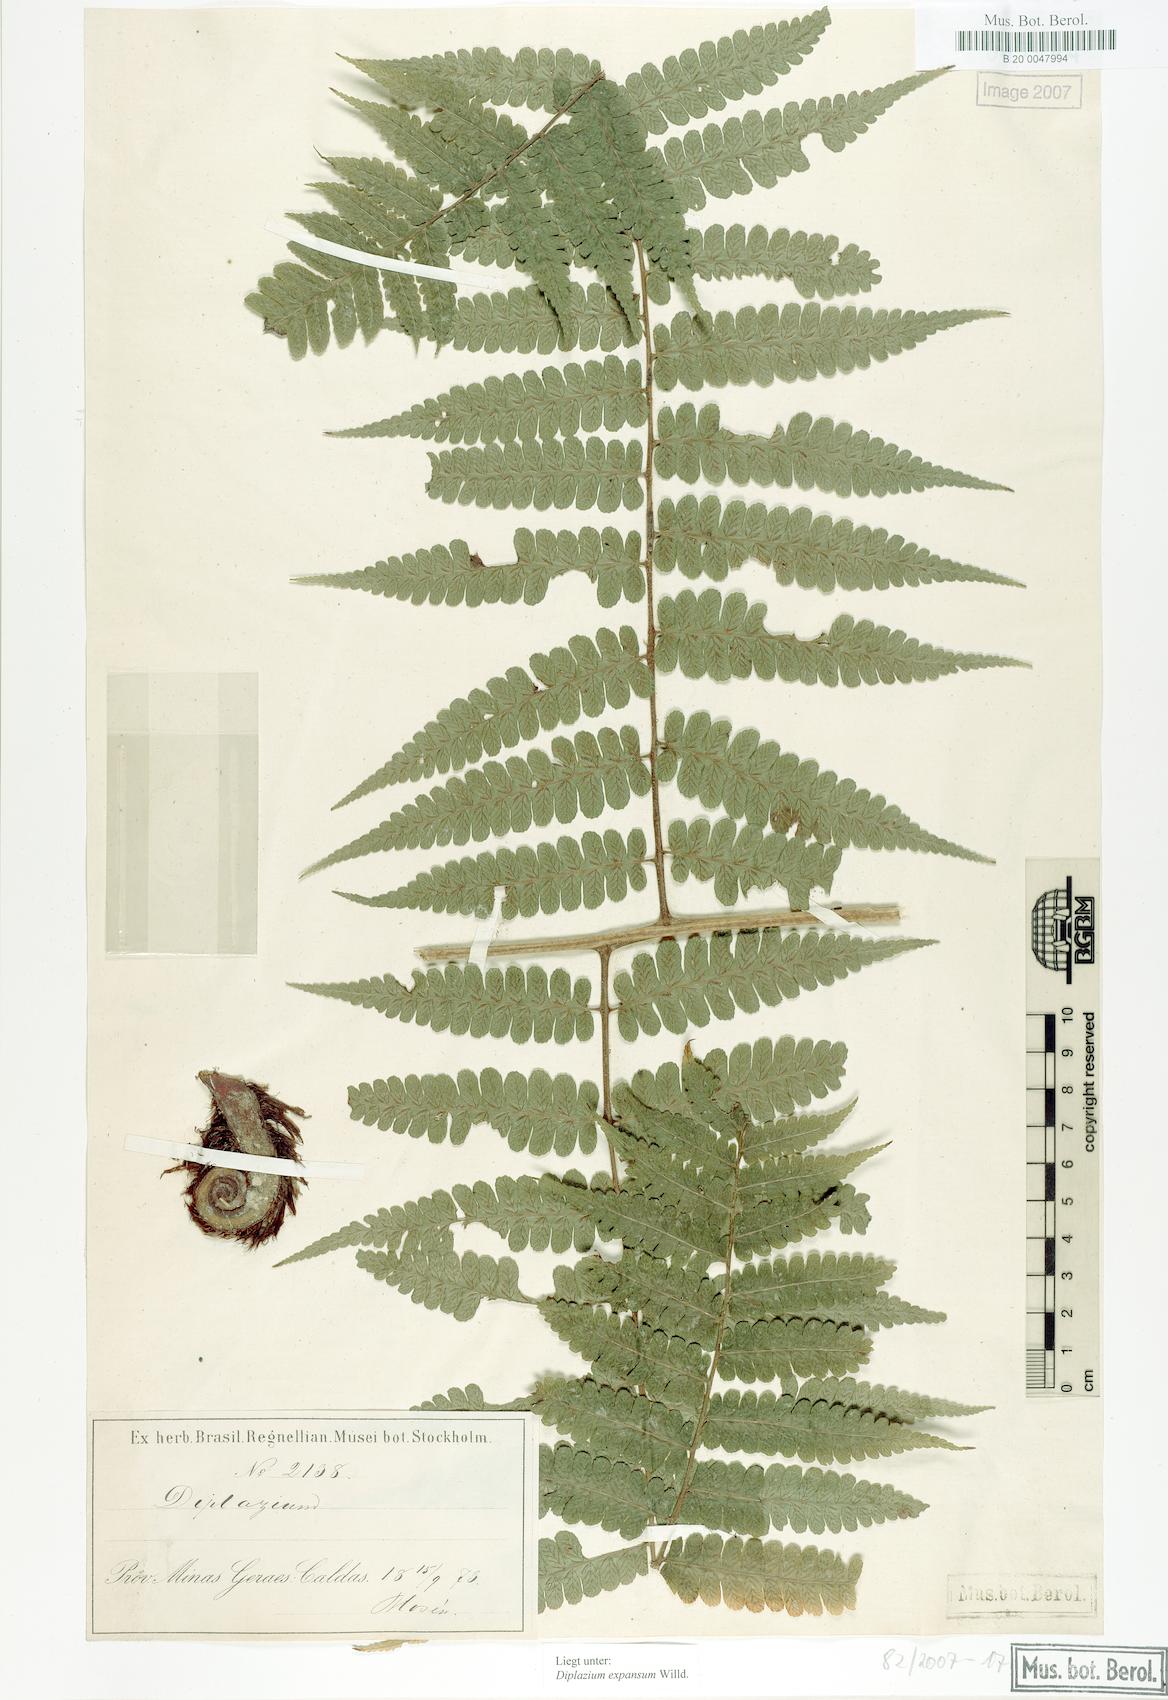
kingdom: Plantae
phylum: Tracheophyta
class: Polypodiopsida
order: Polypodiales
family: Athyriaceae
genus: Diplazium
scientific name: Diplazium expansum
